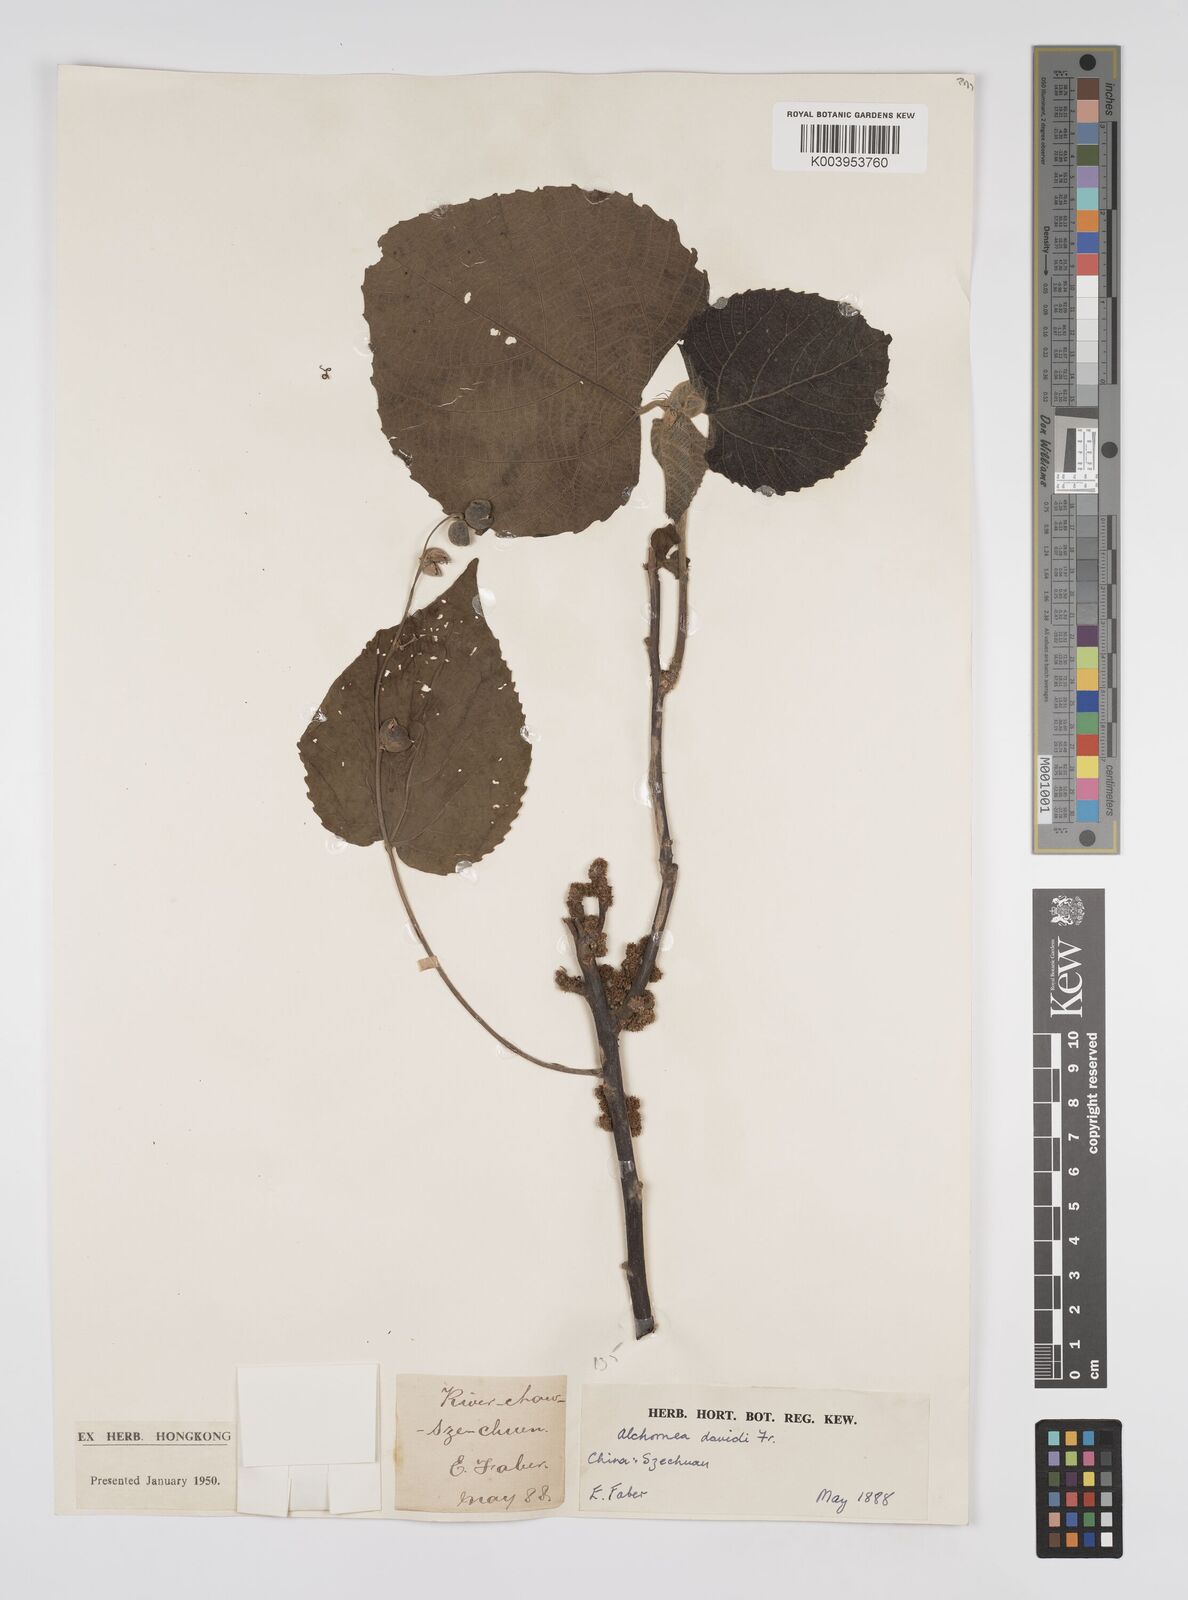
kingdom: Plantae
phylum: Tracheophyta
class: Magnoliopsida
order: Malpighiales
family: Euphorbiaceae
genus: Alchornea
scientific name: Alchornea davidii
